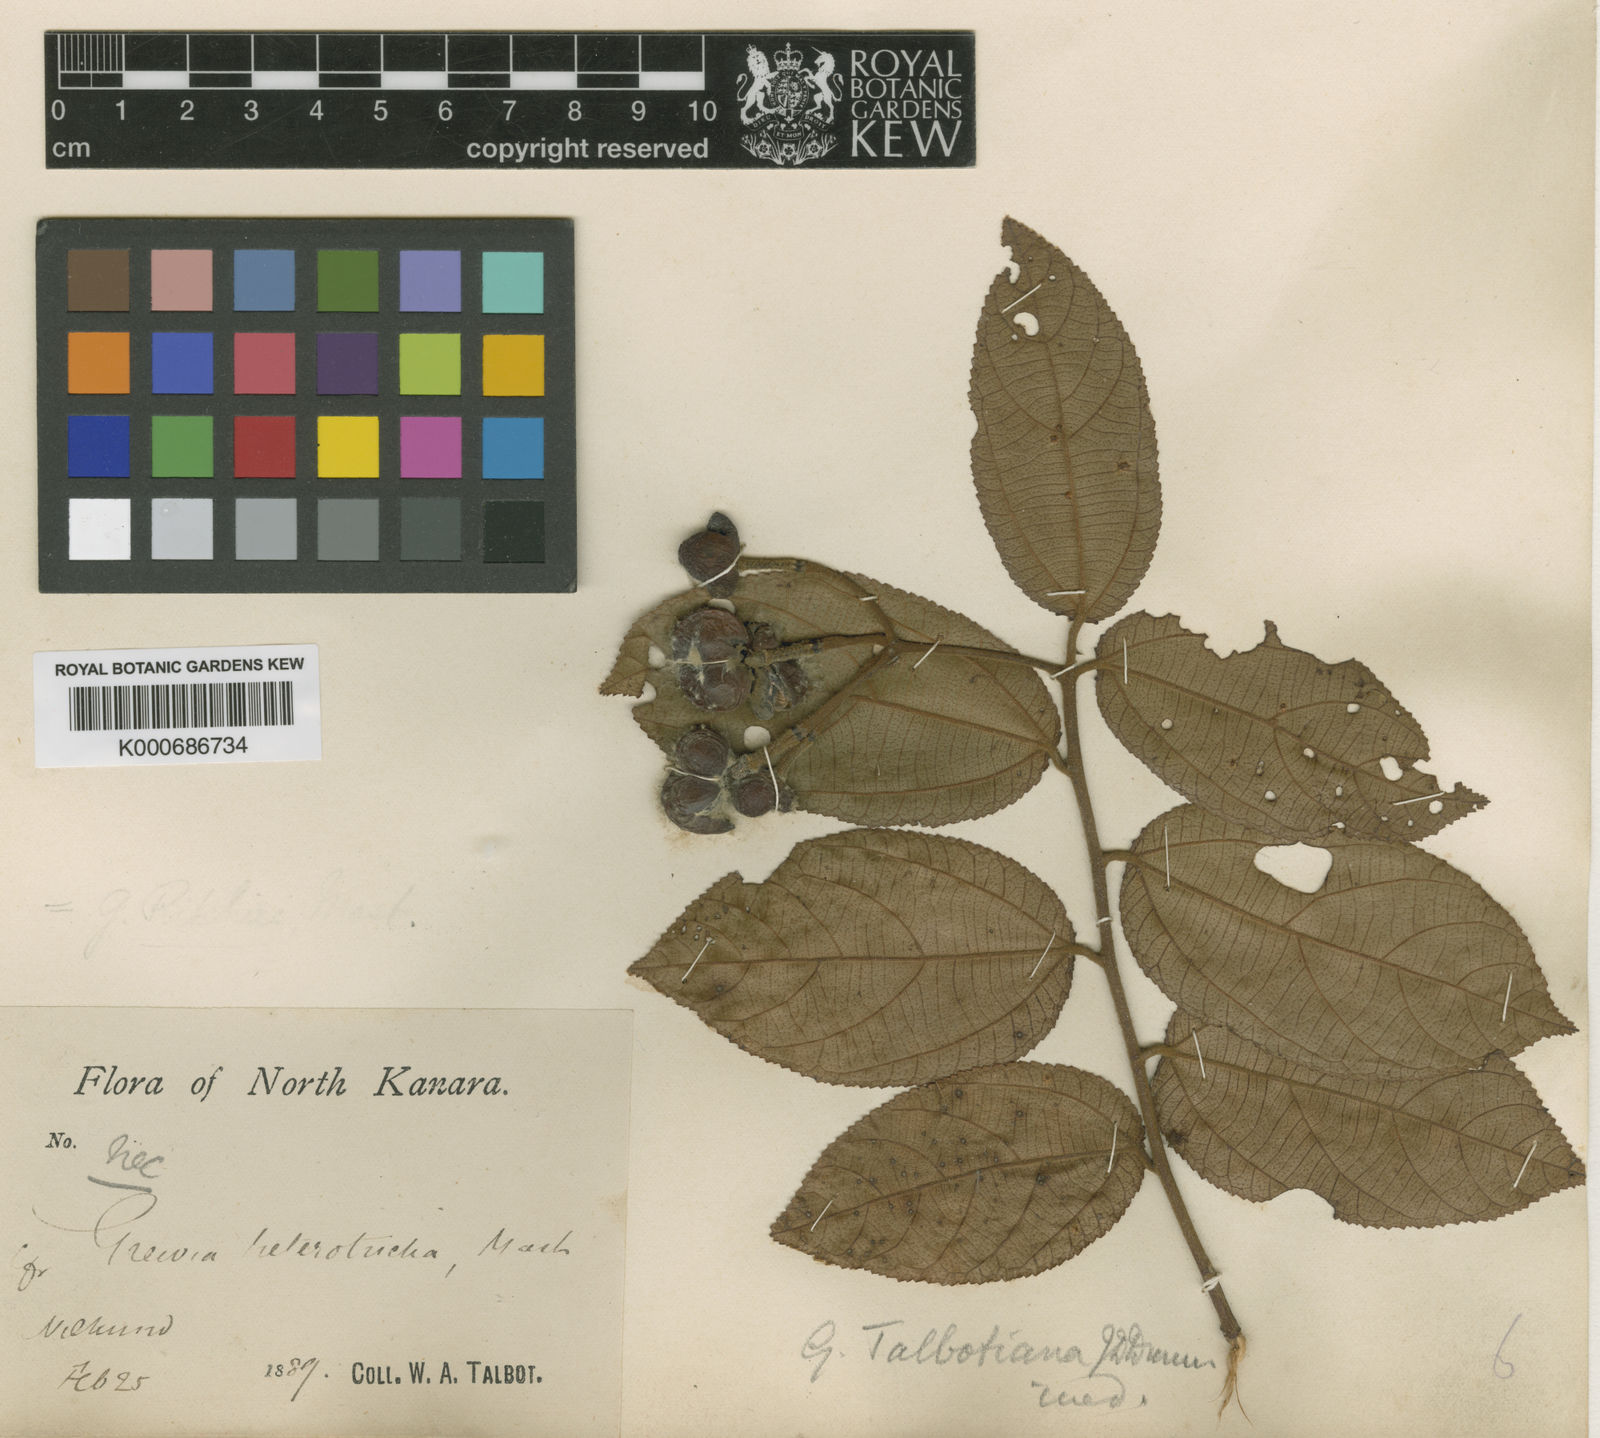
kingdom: Plantae
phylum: Tracheophyta
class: Magnoliopsida
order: Malvales
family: Malvaceae
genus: Grewia
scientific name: Grewia
